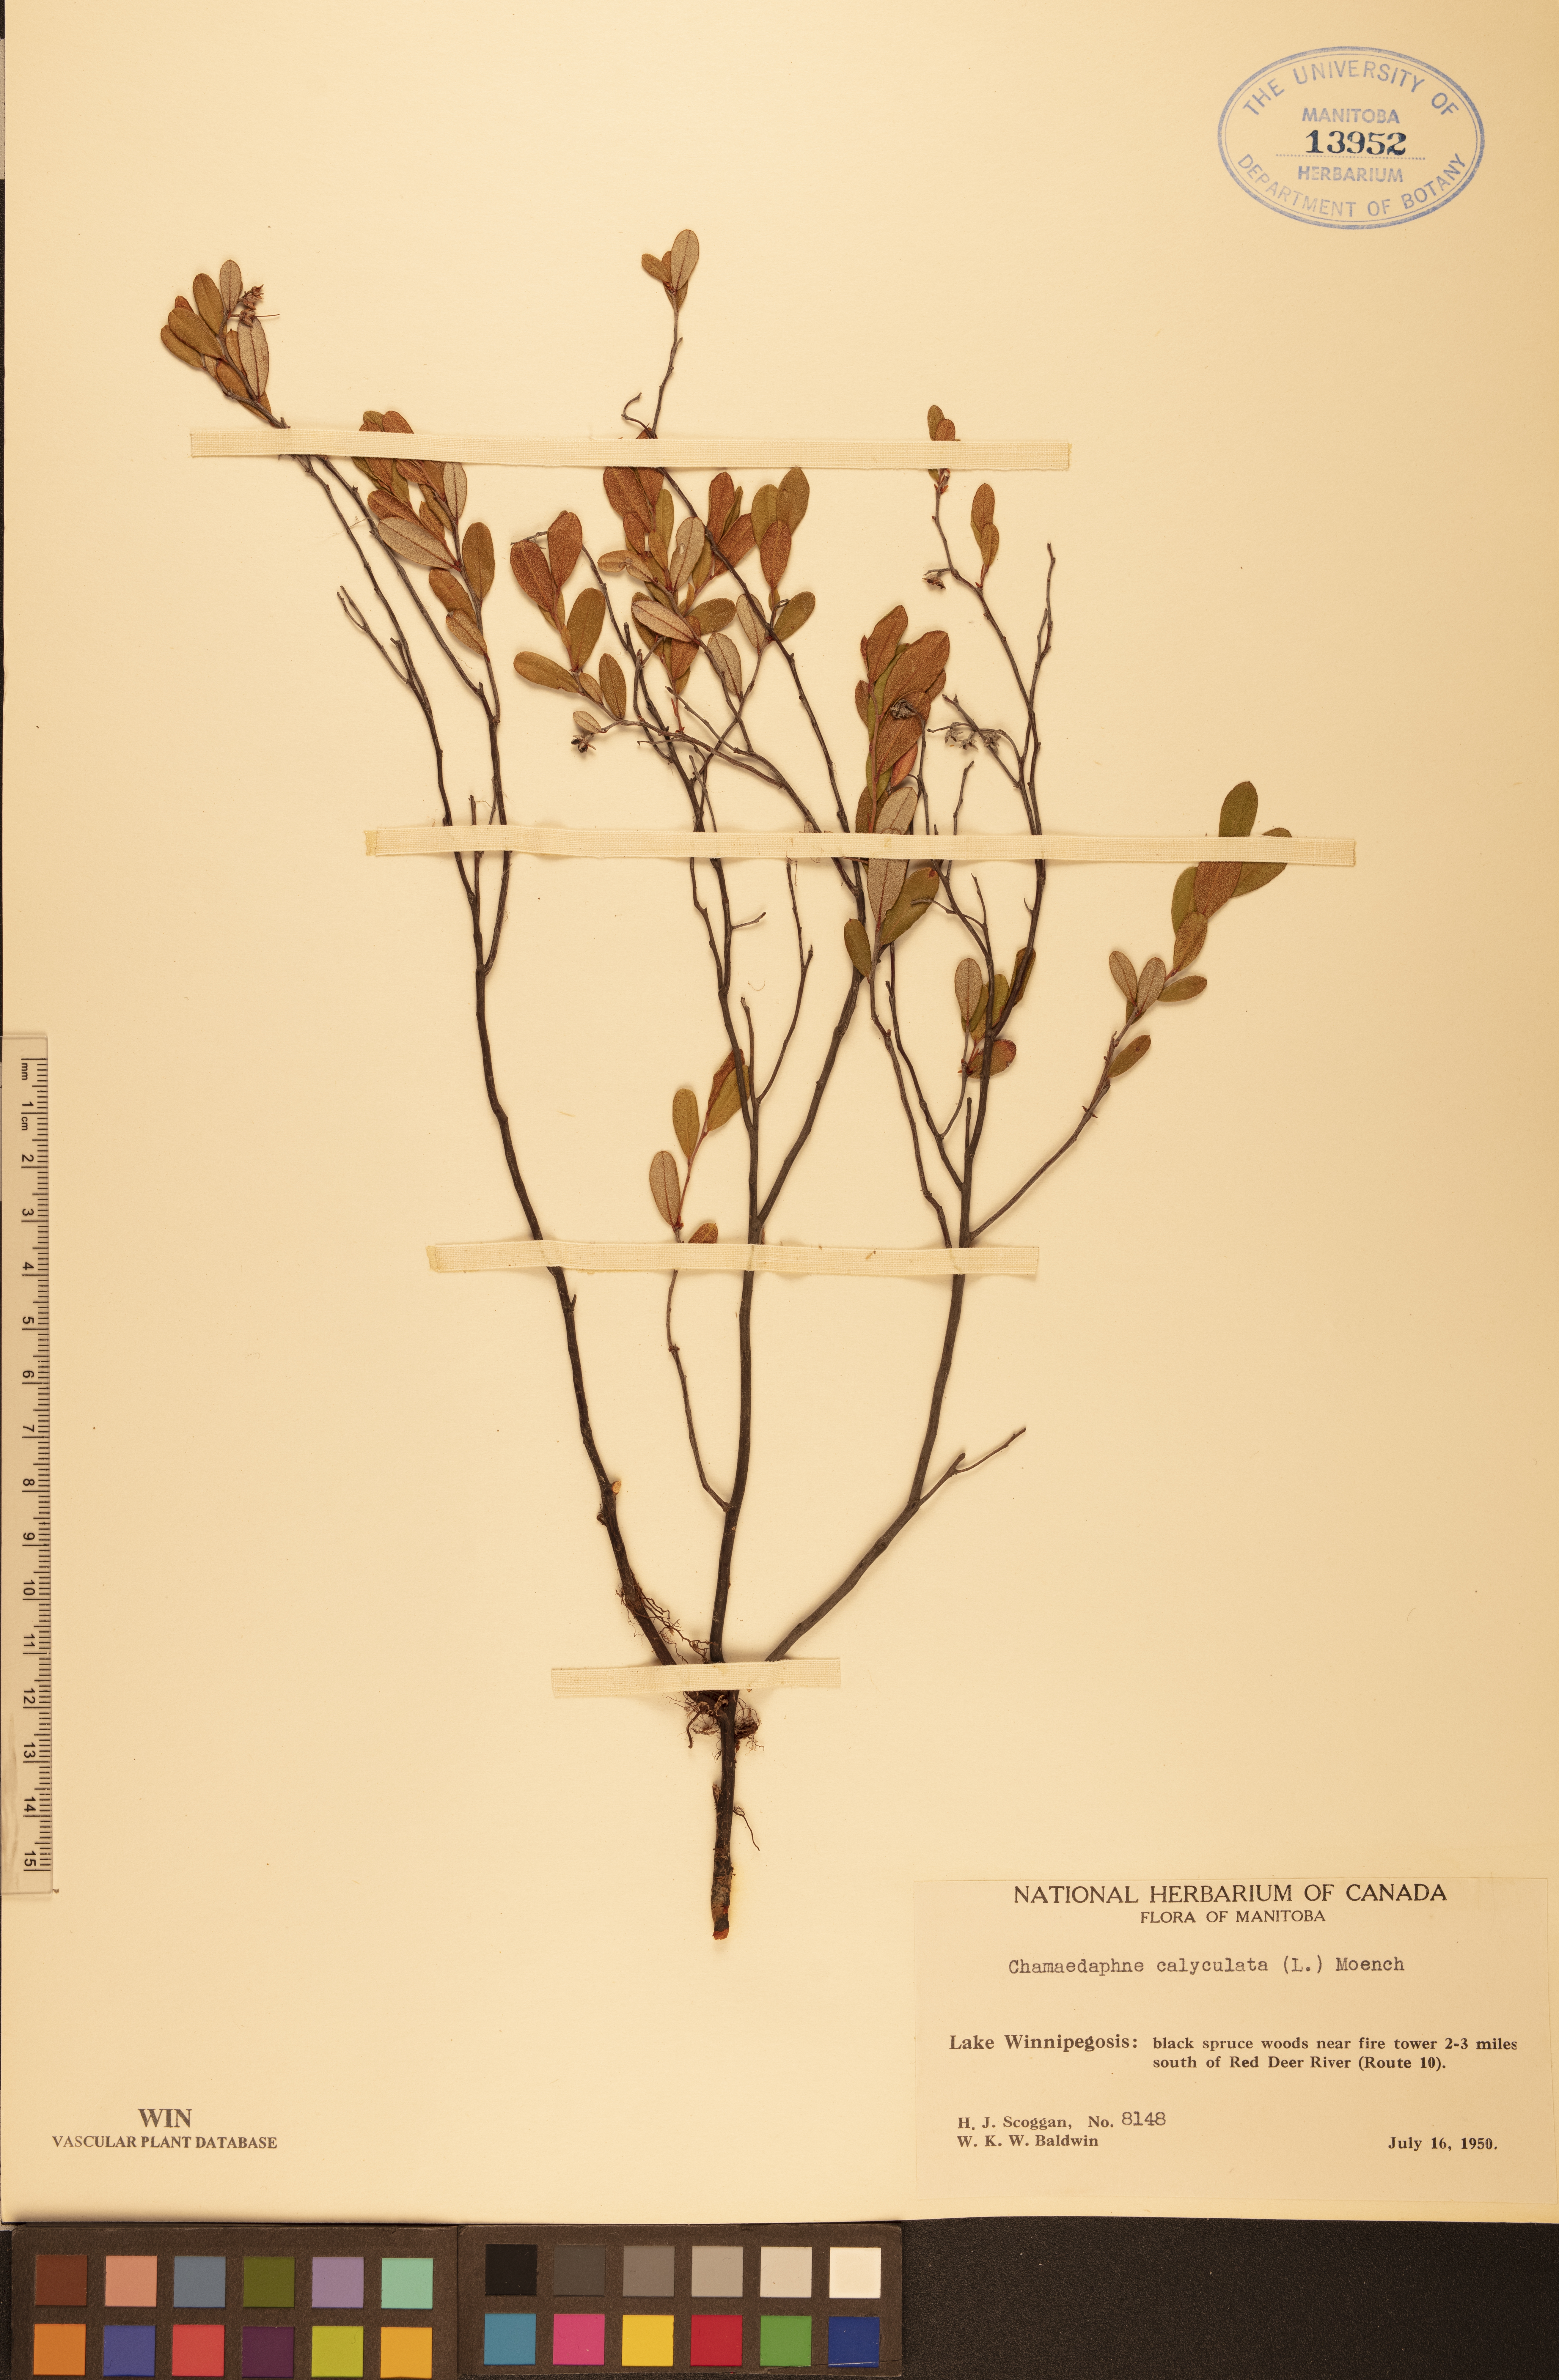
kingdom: Plantae
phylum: Tracheophyta
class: Magnoliopsida
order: Ericales
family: Ericaceae
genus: Chamaedaphne
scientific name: Chamaedaphne calyculata
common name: Leatherleaf
